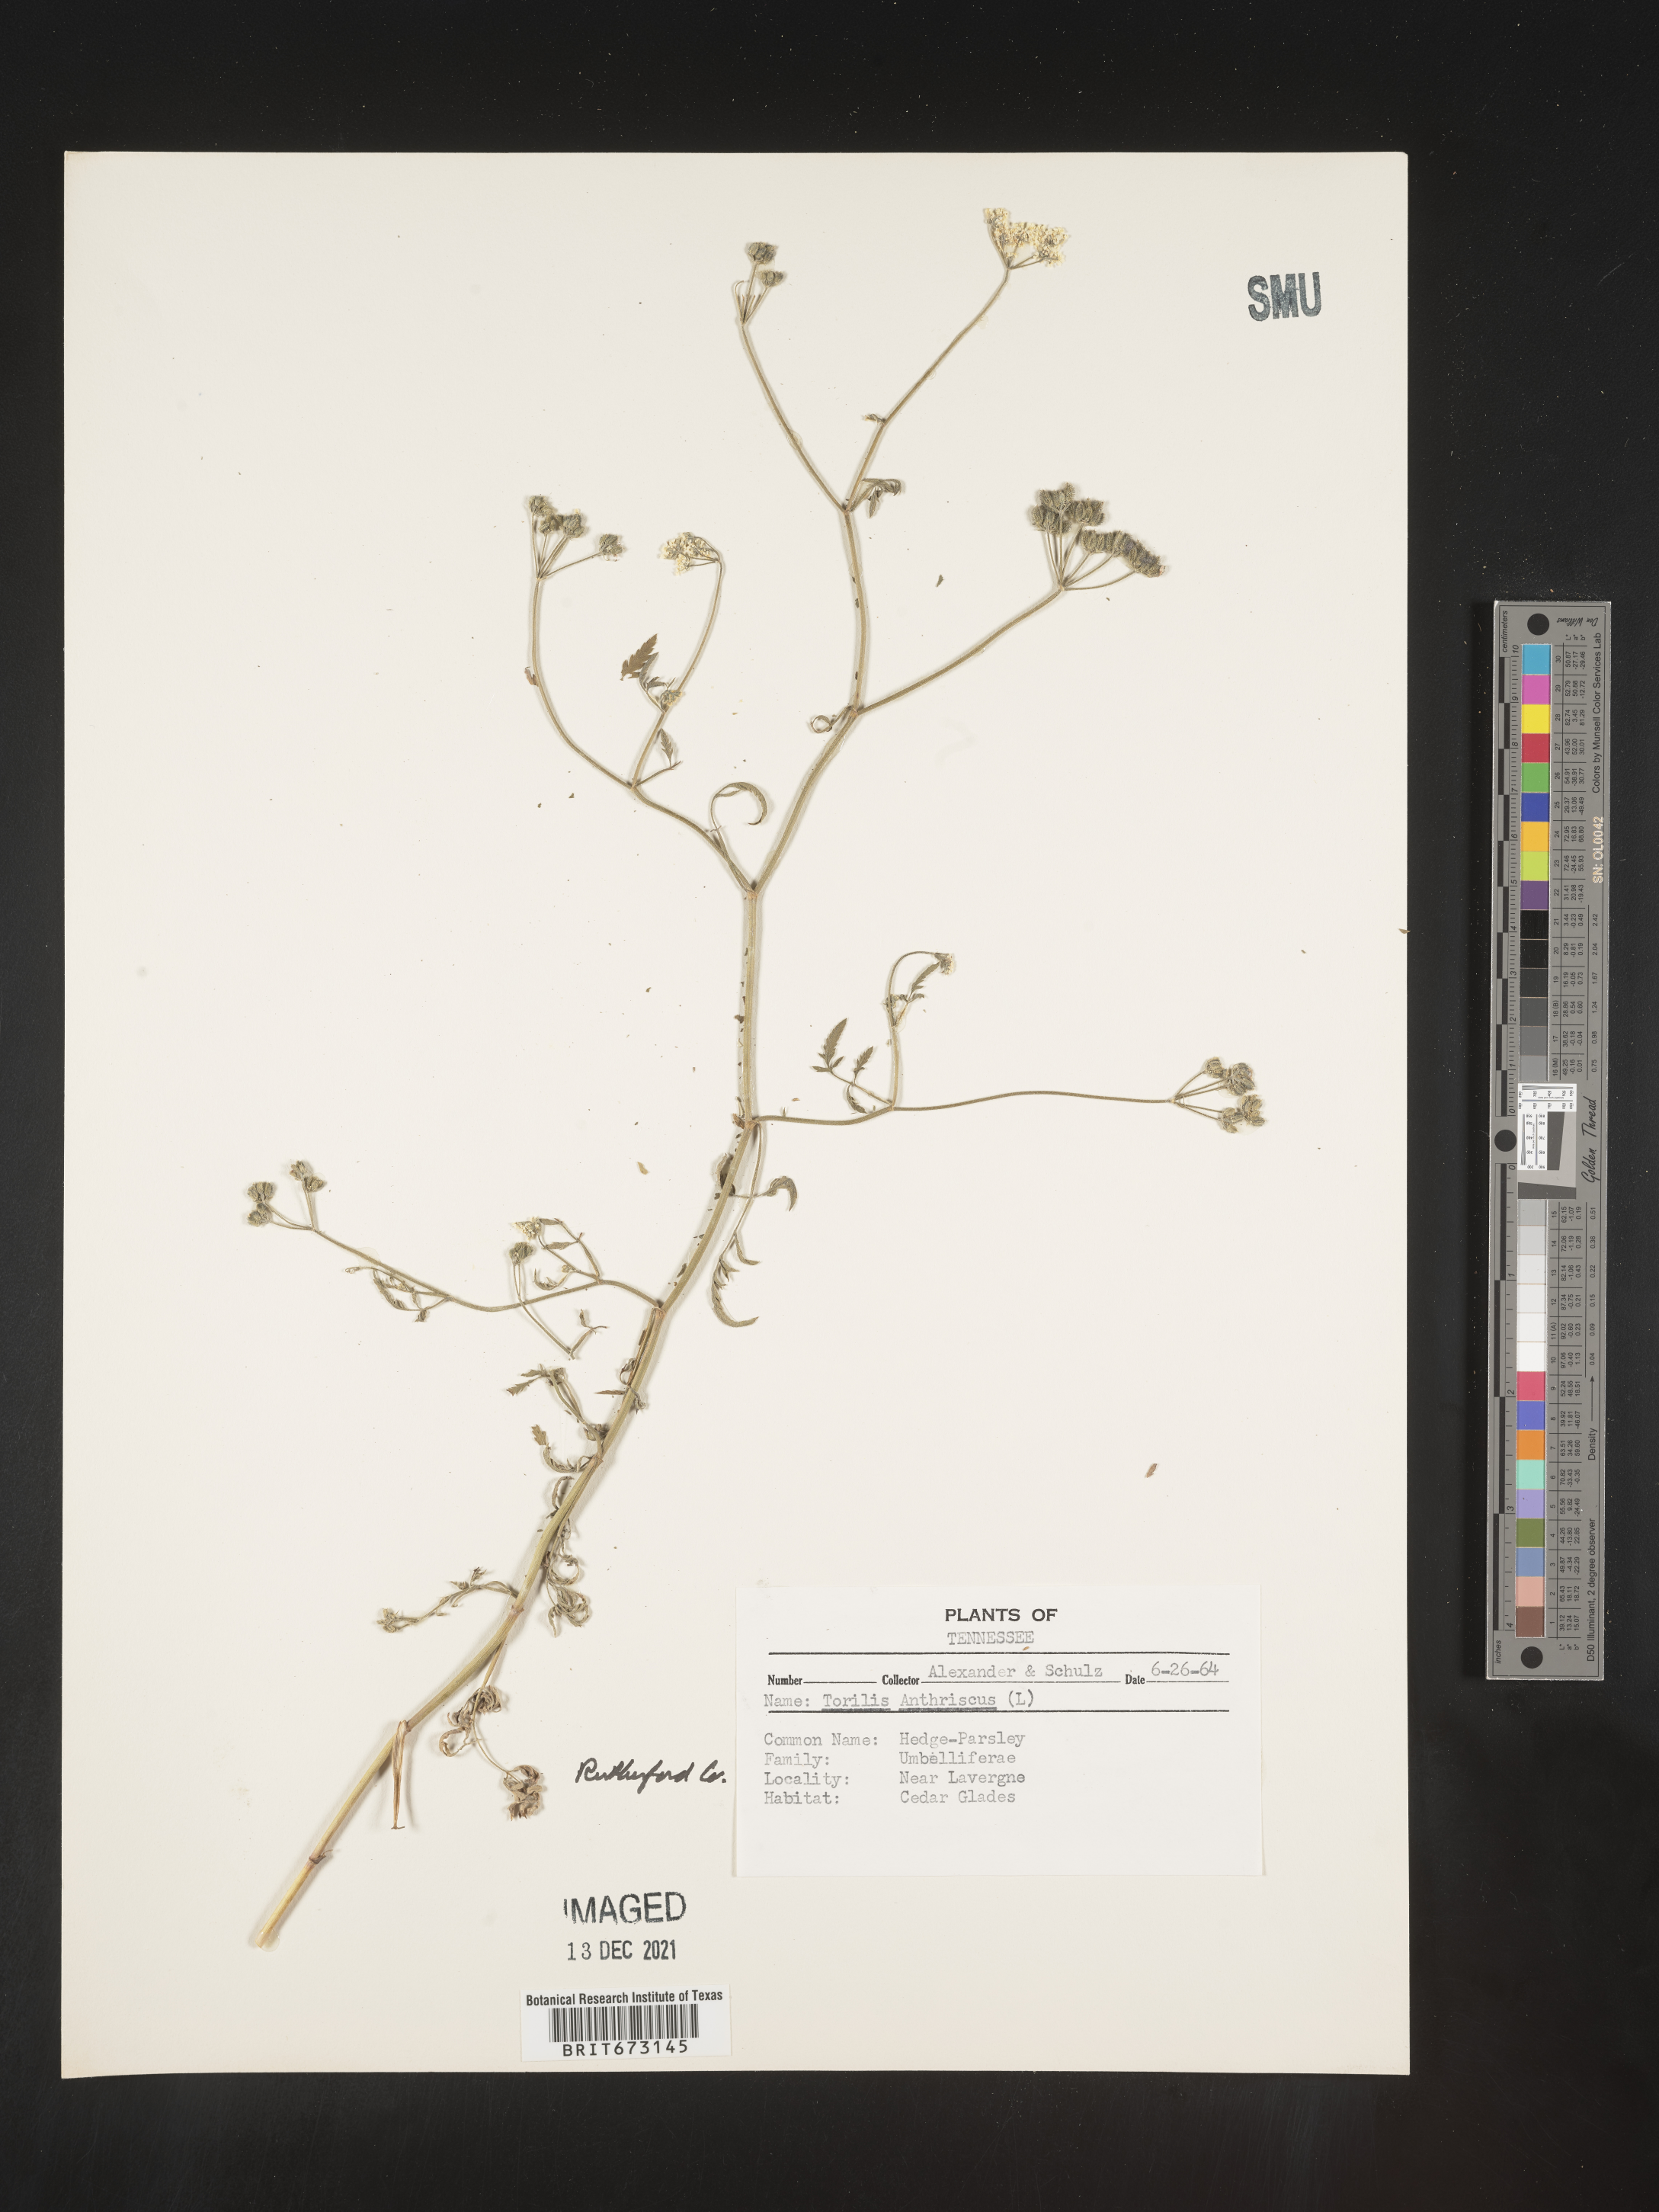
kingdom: Plantae
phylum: Tracheophyta
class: Magnoliopsida
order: Apiales
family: Apiaceae
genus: Torilis
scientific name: Torilis arvensis
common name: Spreading hedge-parsley
